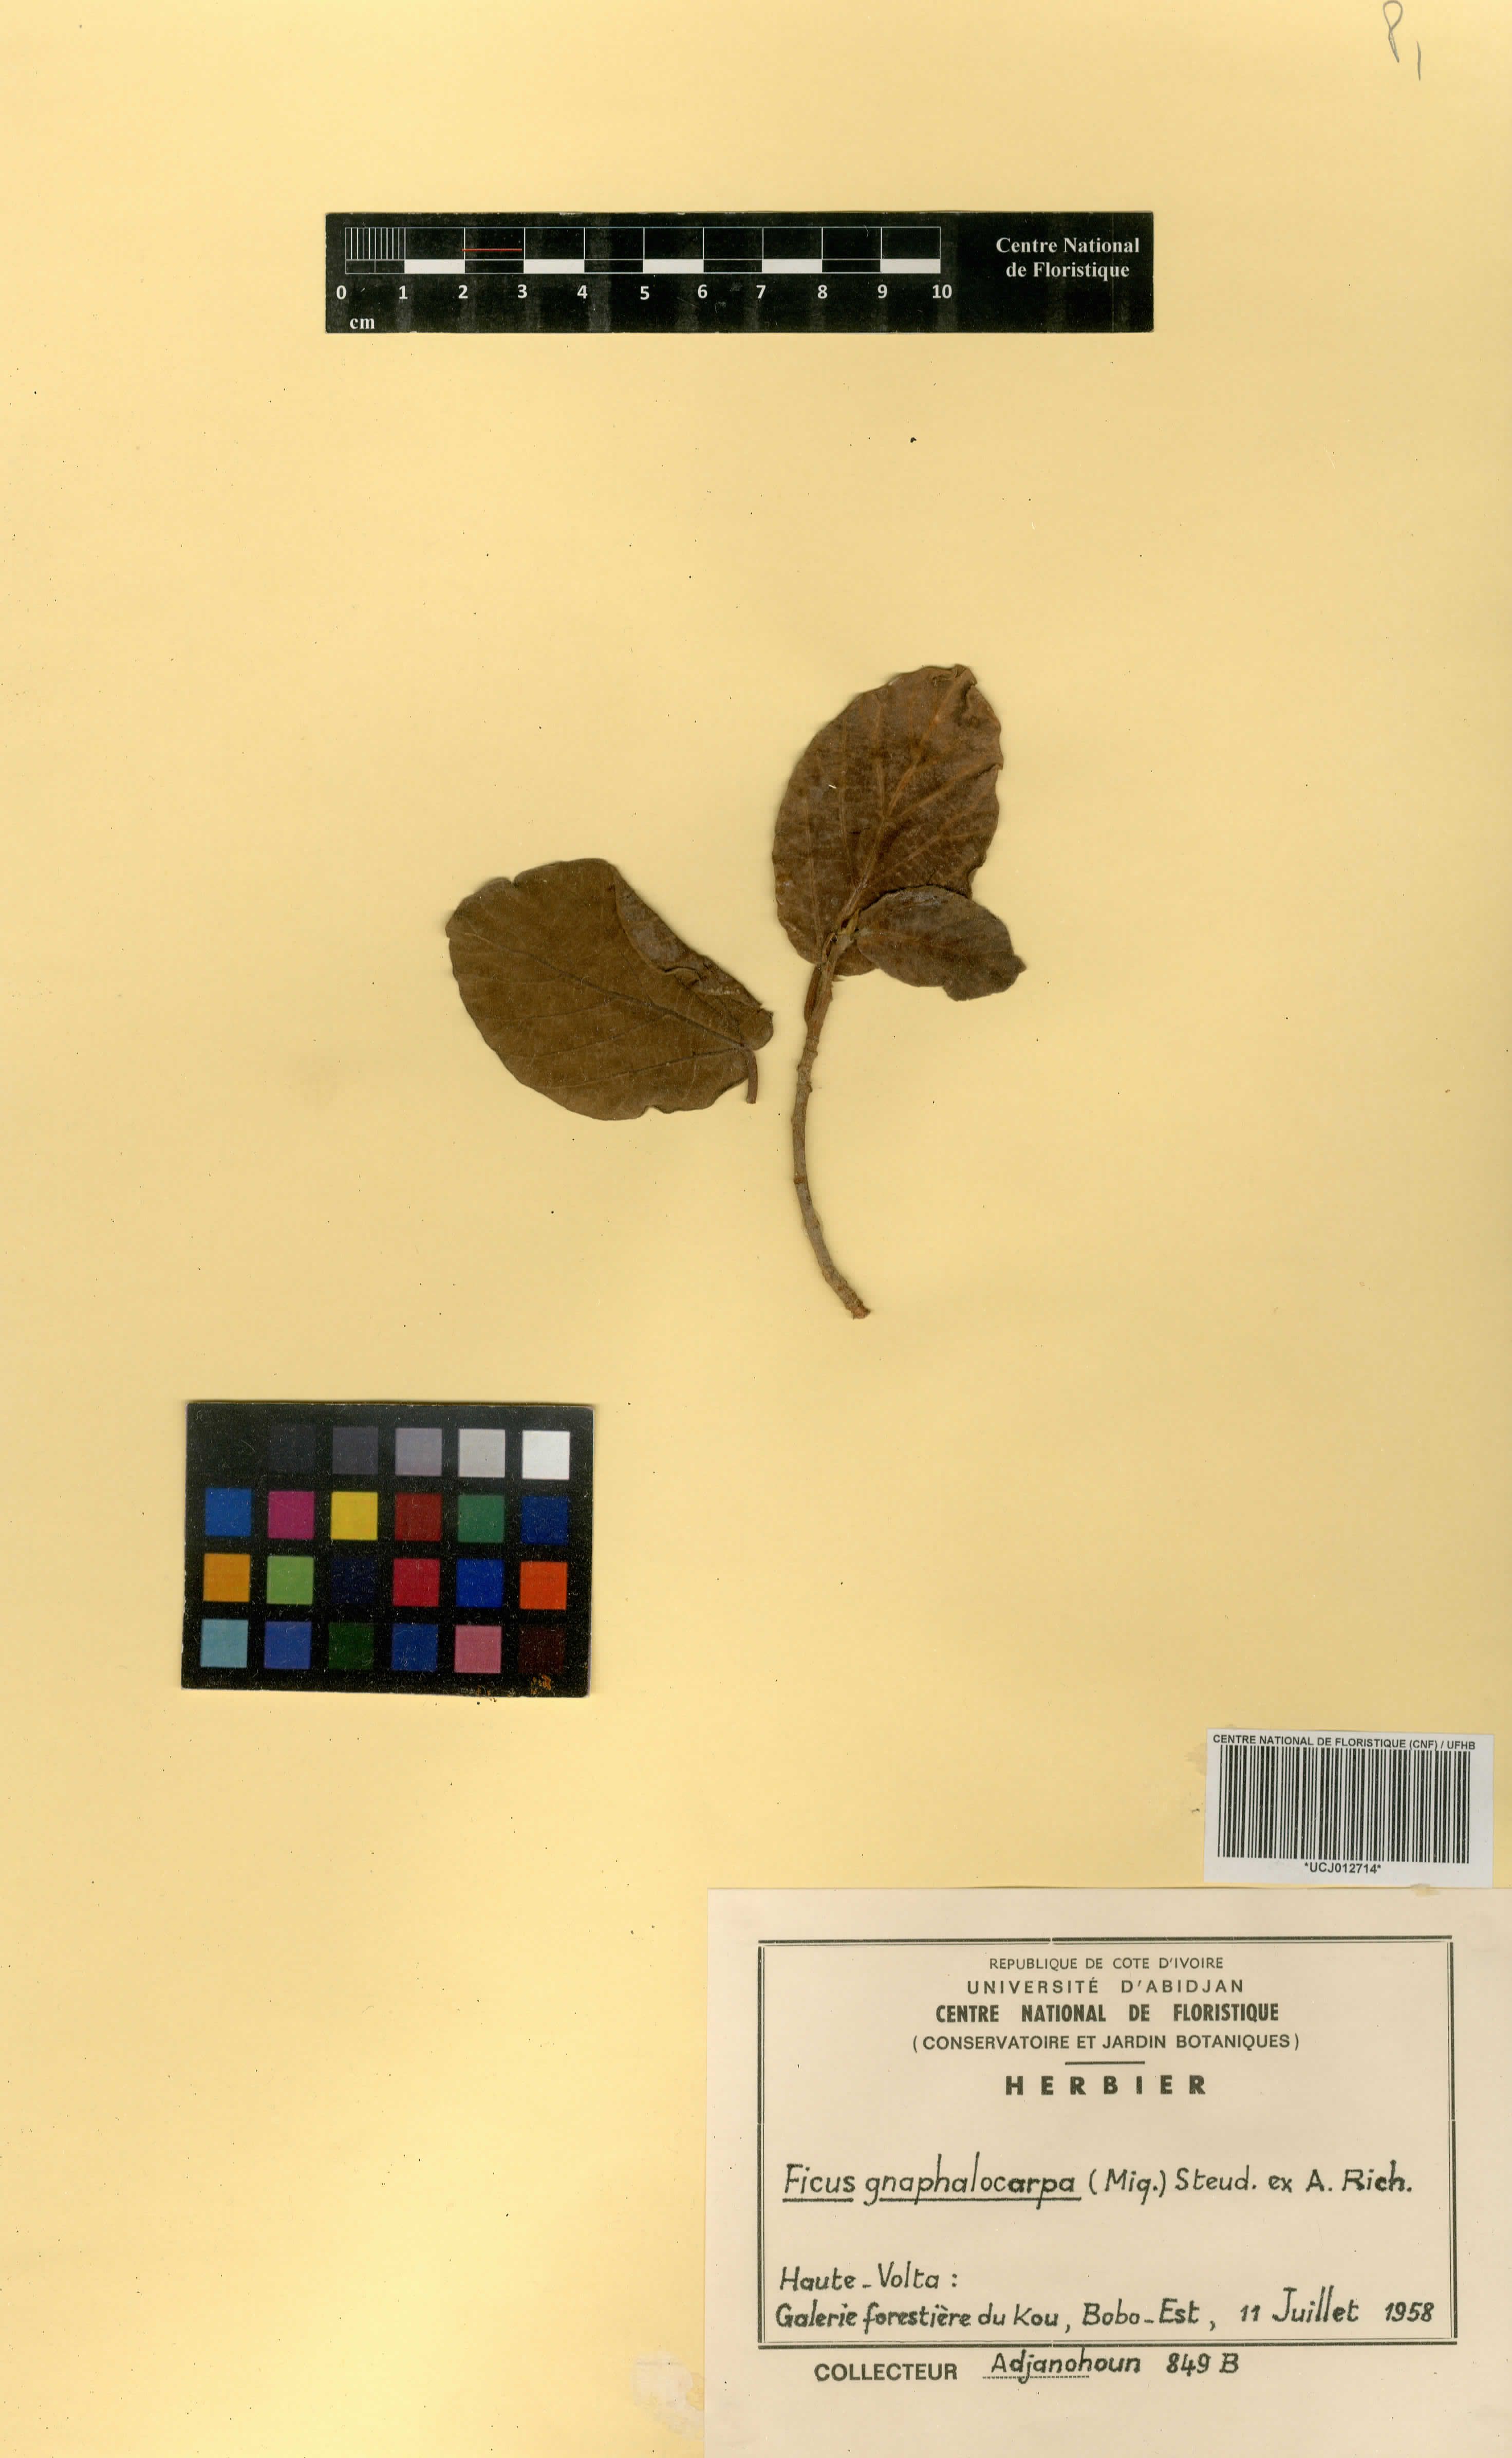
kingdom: Plantae
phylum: Tracheophyta
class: Magnoliopsida
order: Rosales
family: Moraceae
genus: Ficus
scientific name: Ficus sycomorus
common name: Sycomore
